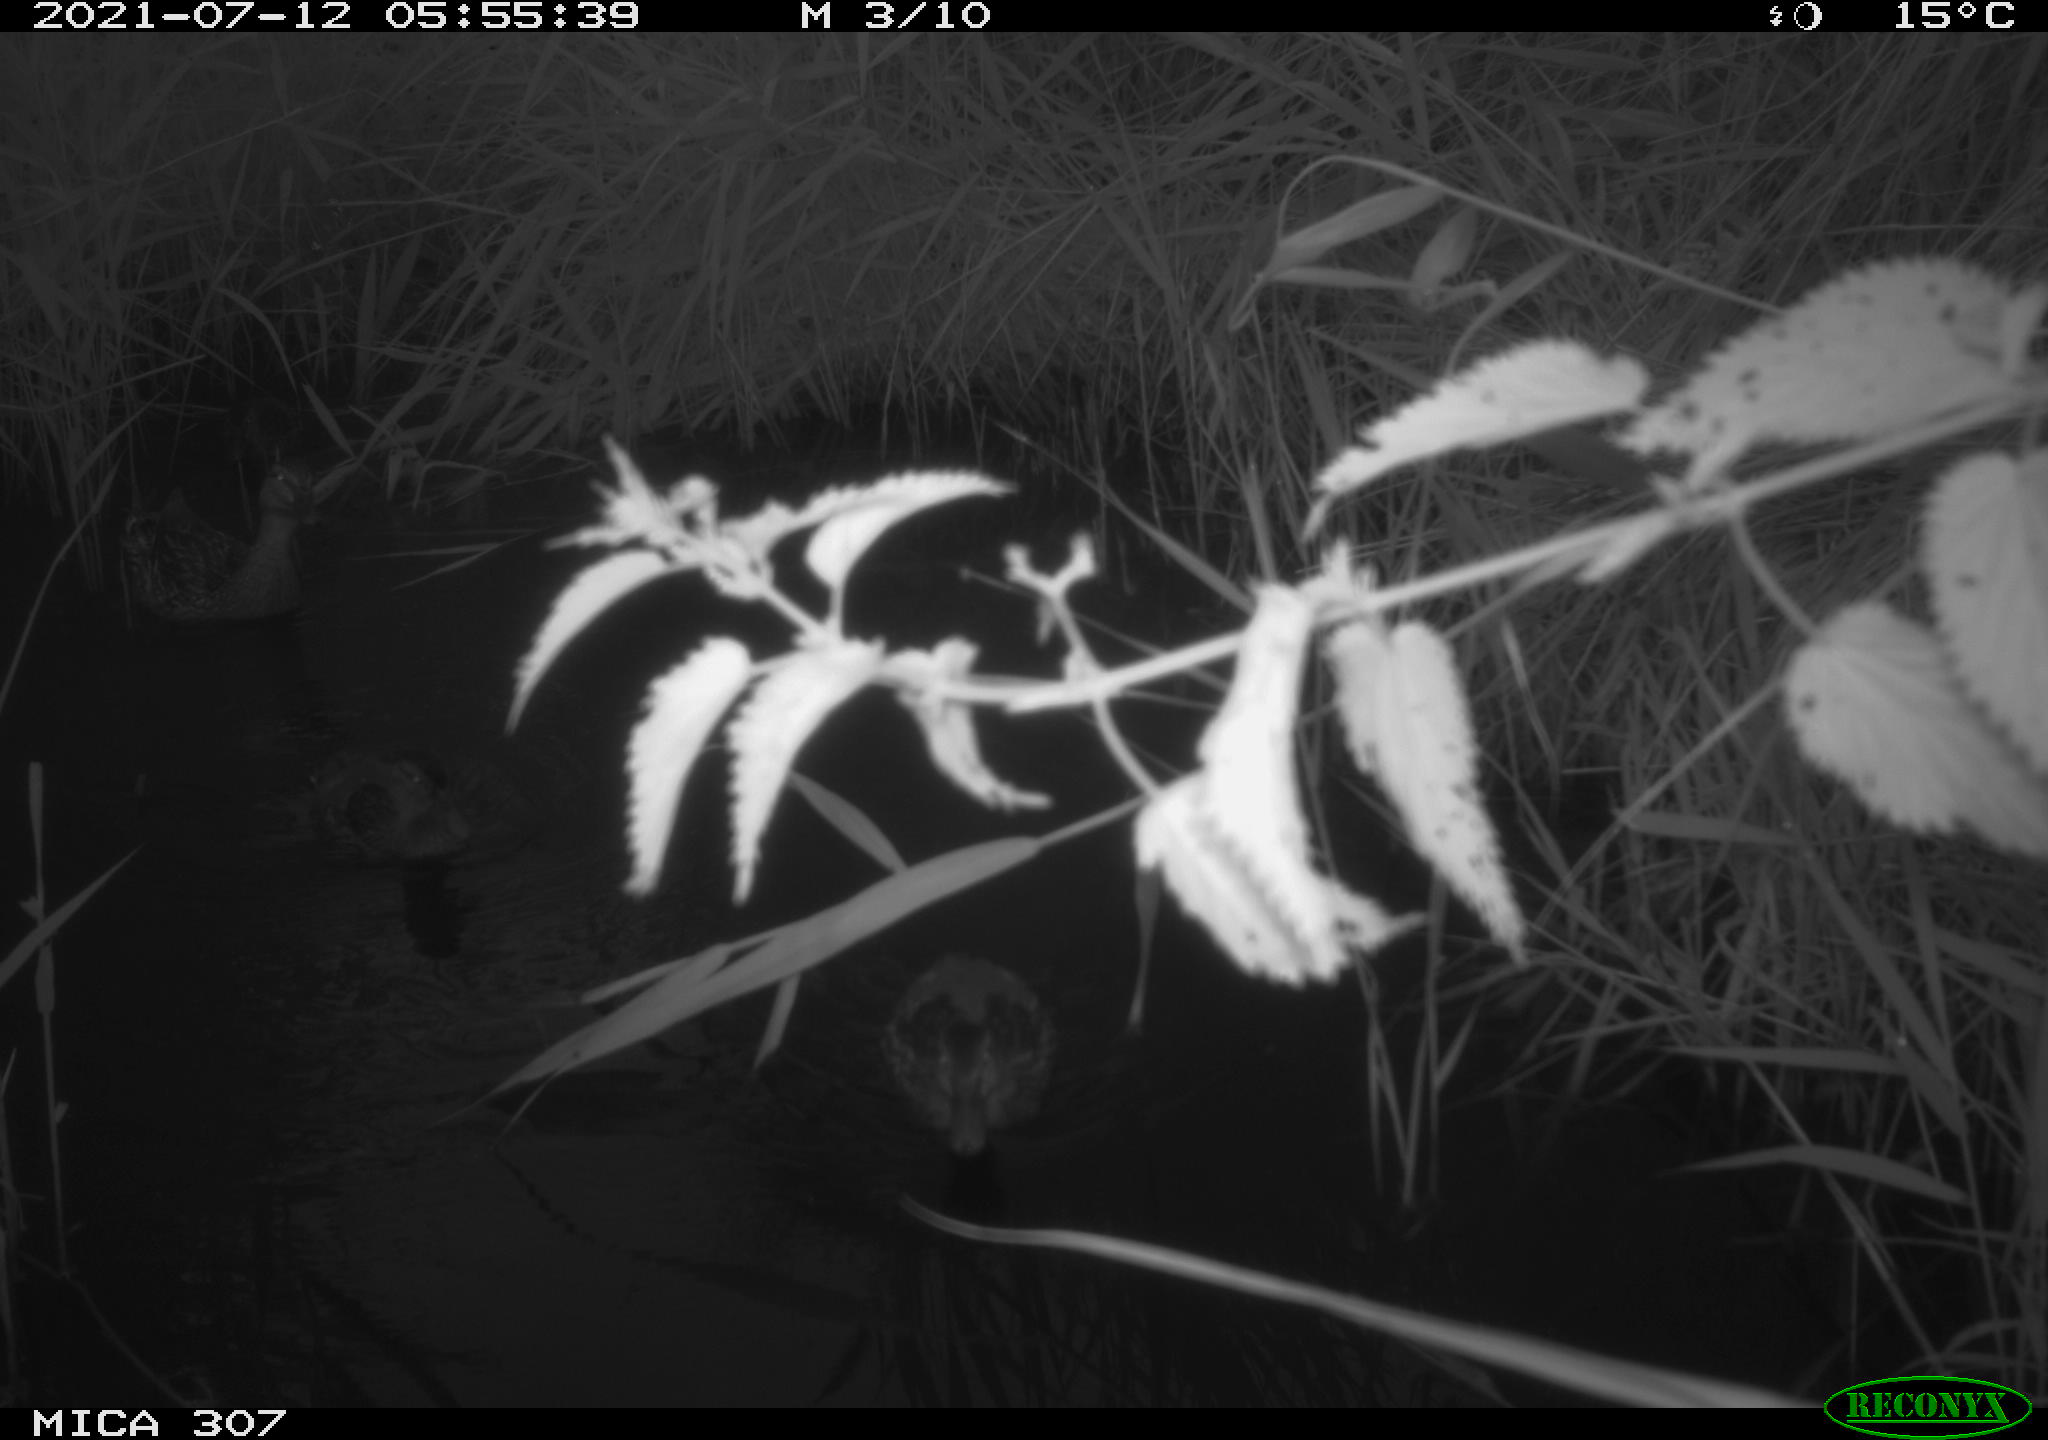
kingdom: Animalia
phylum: Chordata
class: Aves
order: Anseriformes
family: Anatidae
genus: Anas
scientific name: Anas platyrhynchos
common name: Mallard
